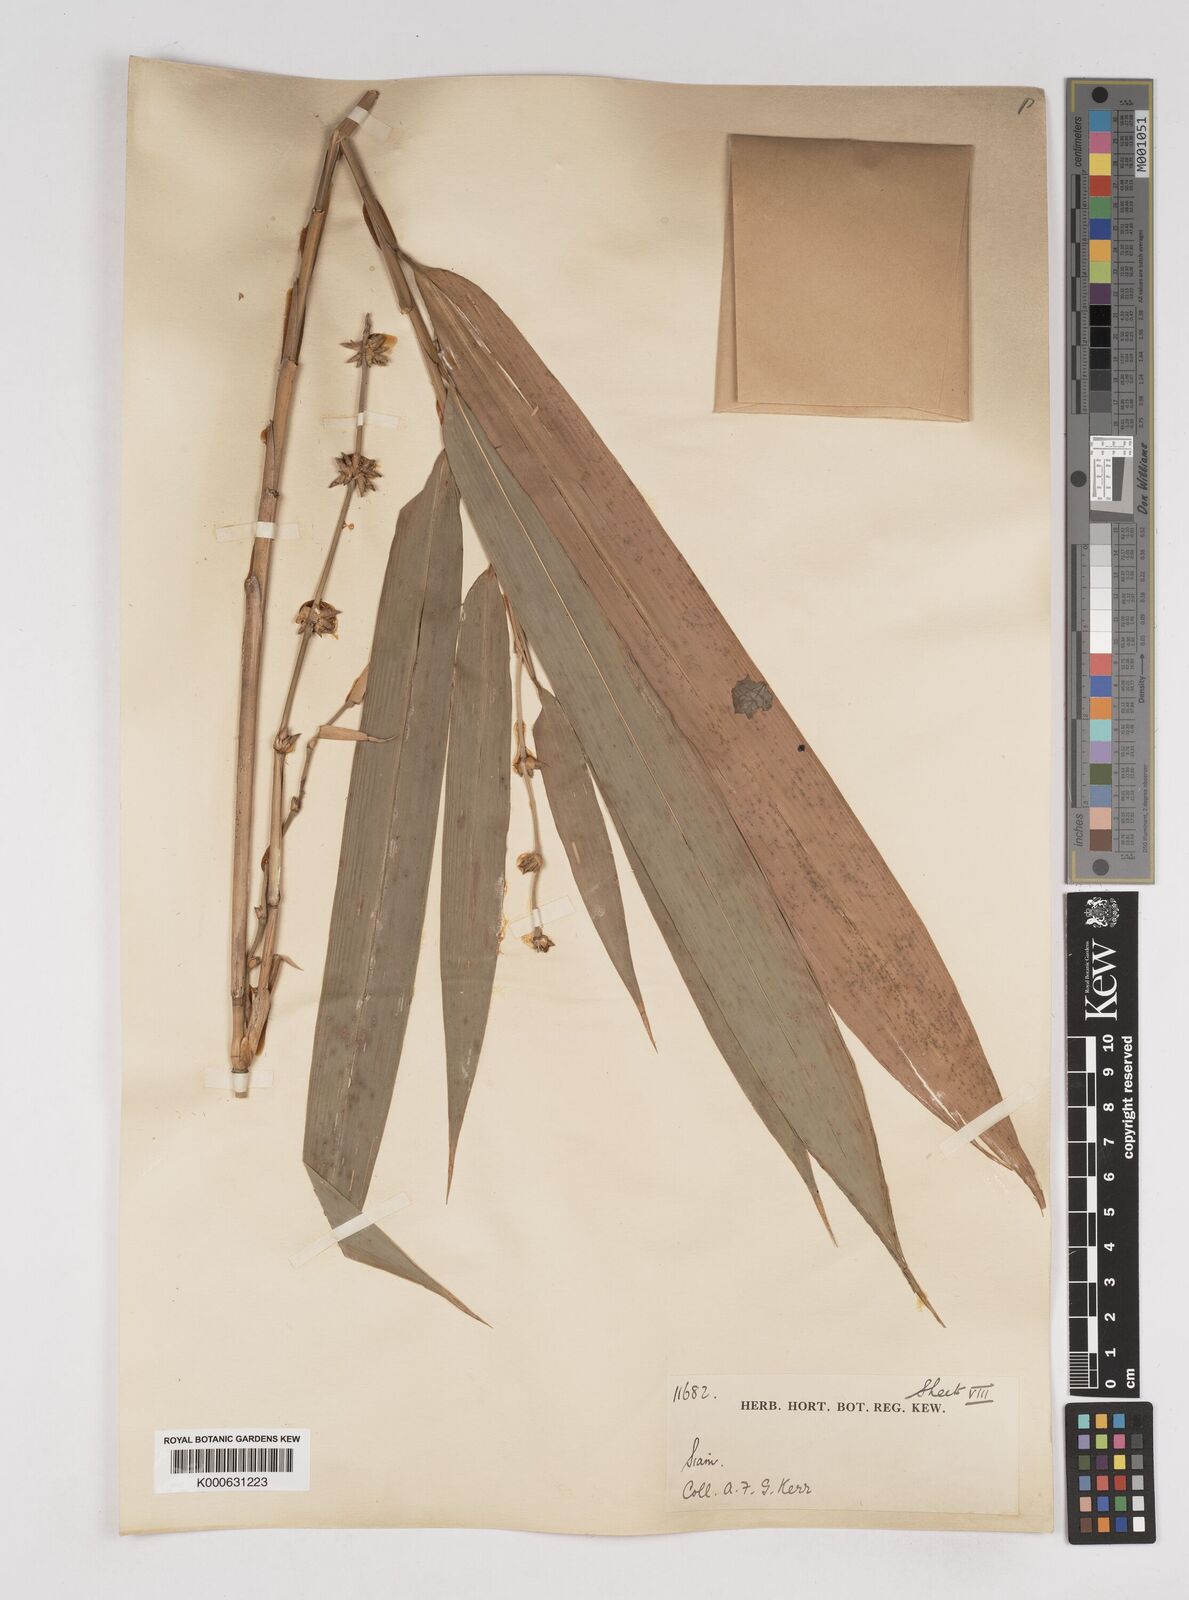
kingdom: Plantae
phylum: Tracheophyta
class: Liliopsida
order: Poales
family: Poaceae
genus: Gigantochloa
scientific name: Gigantochloa
